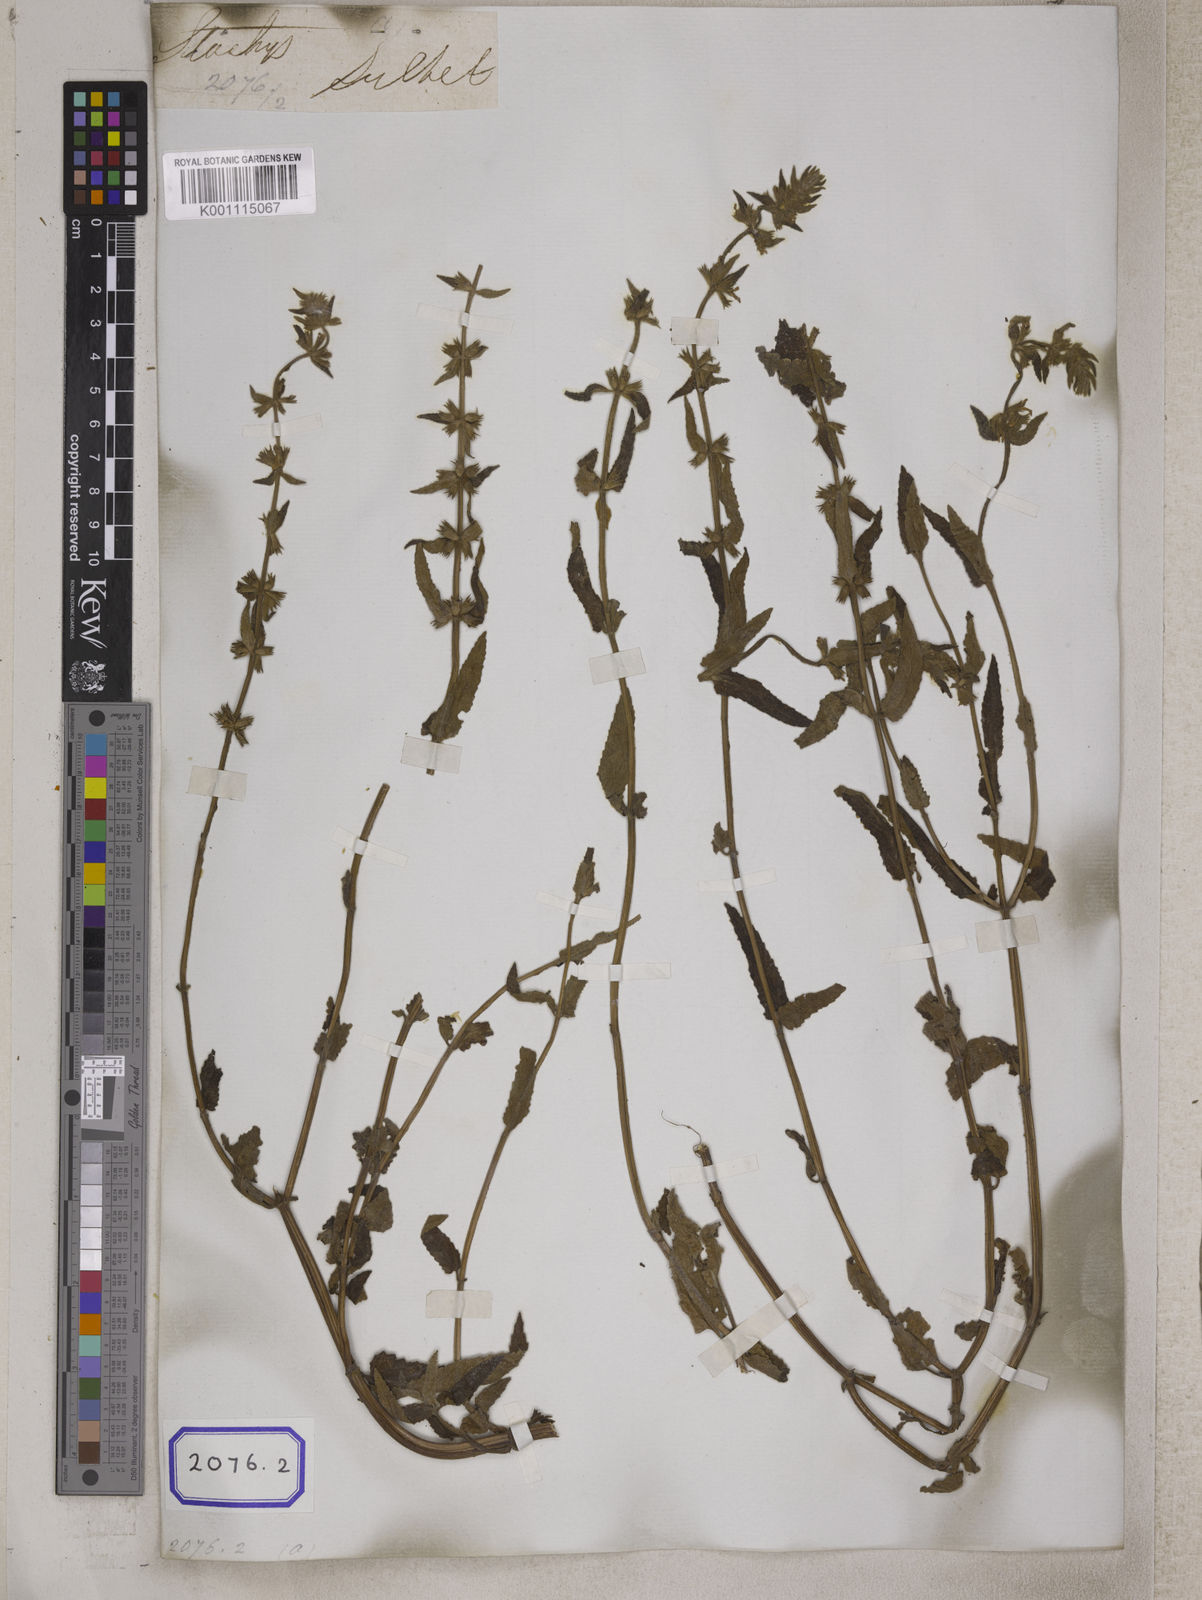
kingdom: Plantae
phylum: Tracheophyta
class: Magnoliopsida
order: Lamiales
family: Lamiaceae
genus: Stachys
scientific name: Stachys
